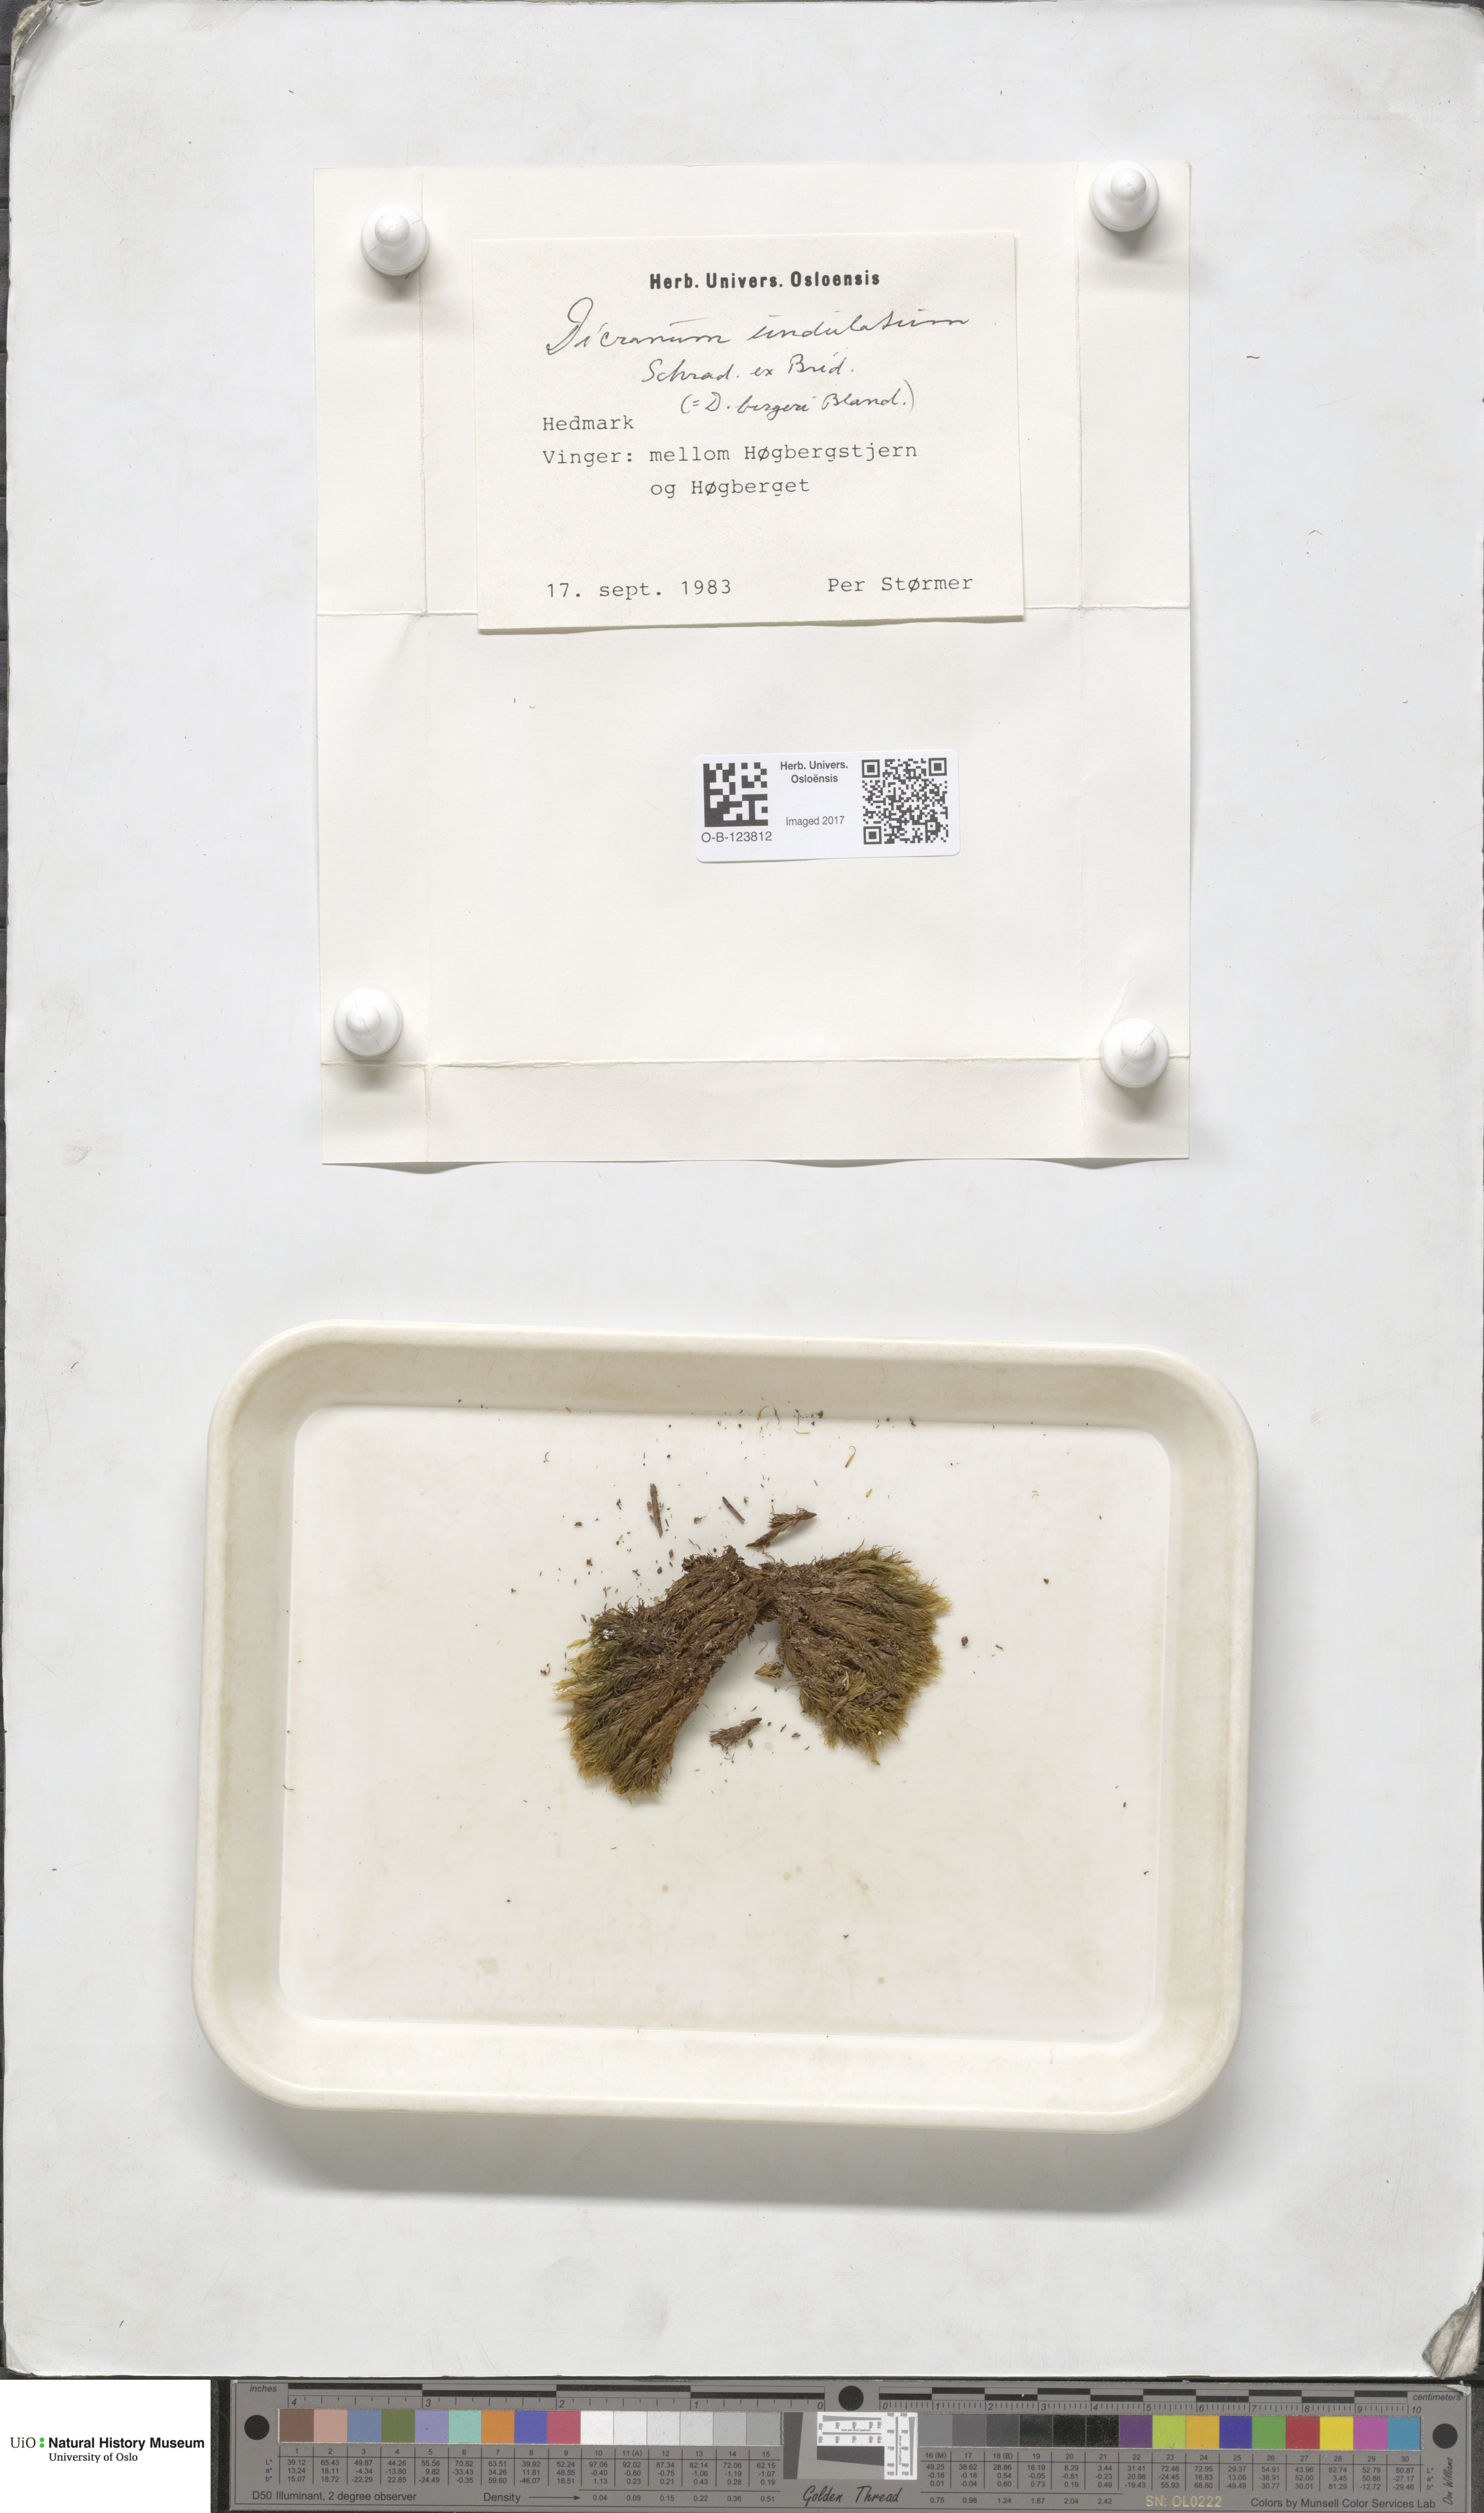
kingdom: Plantae
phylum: Bryophyta
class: Bryopsida
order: Dicranales
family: Dicranaceae
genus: Dicranum
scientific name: Dicranum undulatum
